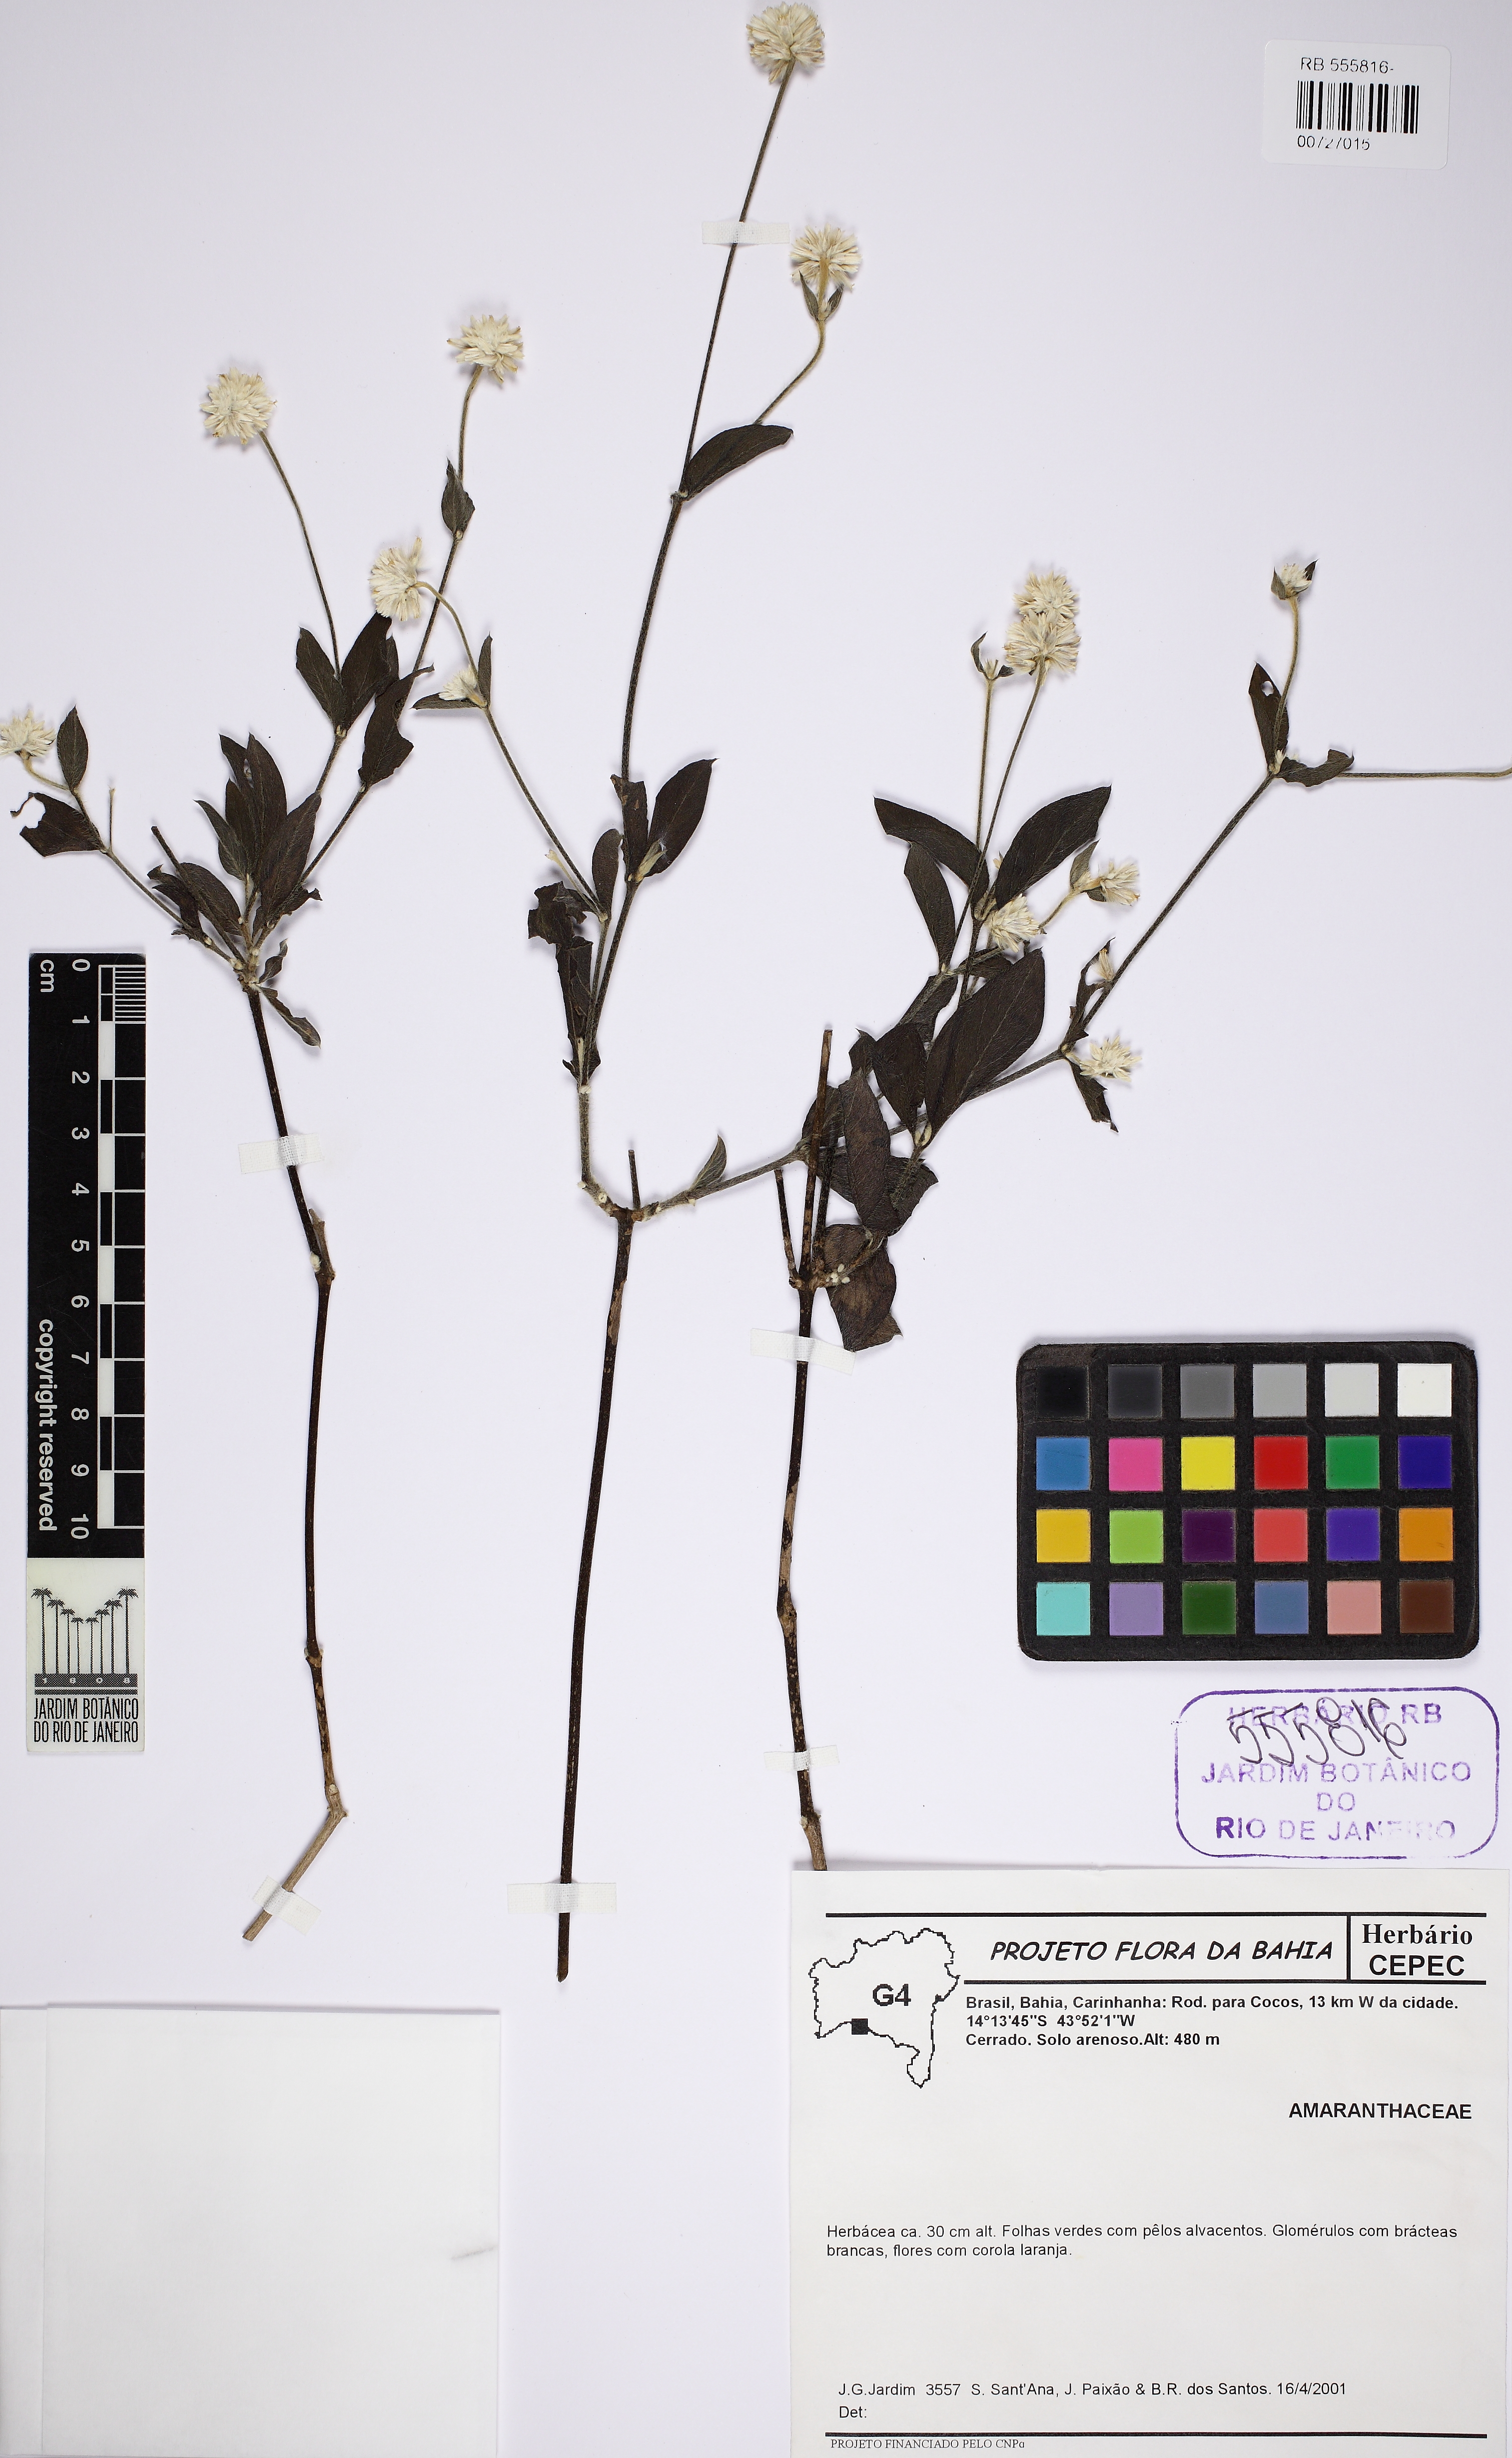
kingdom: Plantae
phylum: Tracheophyta
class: Magnoliopsida
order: Caryophyllales
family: Amaranthaceae
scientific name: Amaranthaceae
